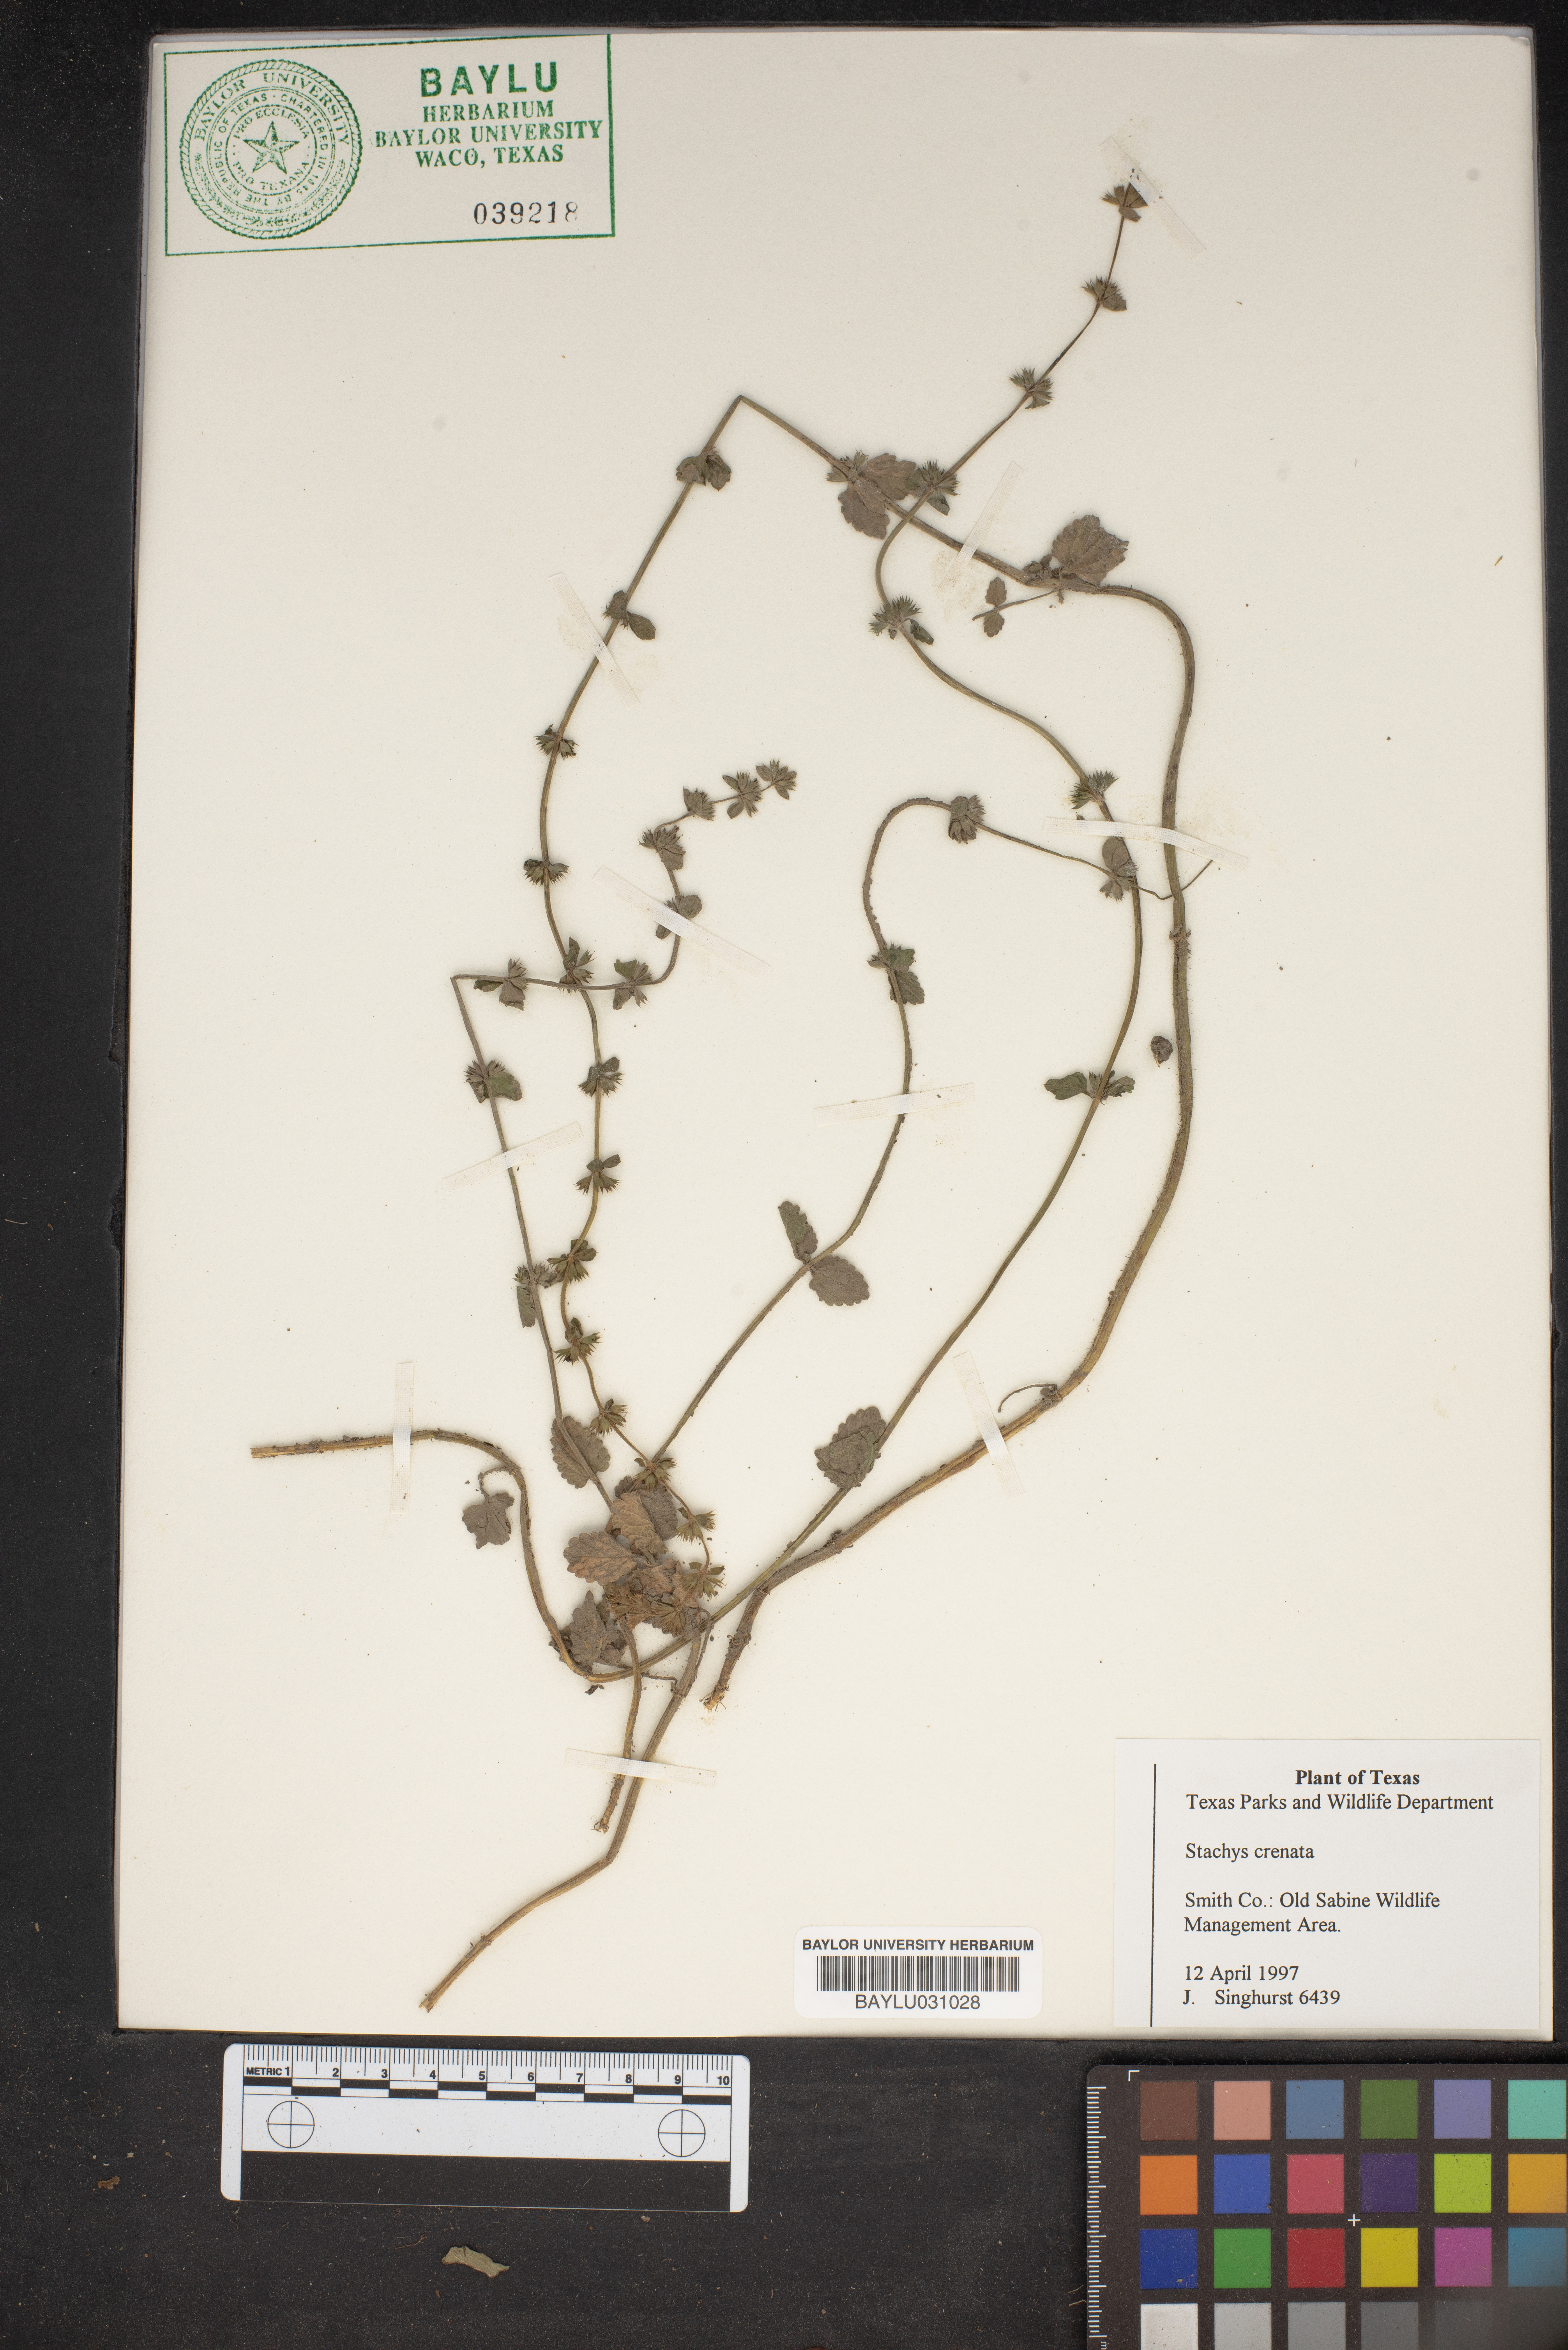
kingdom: Plantae
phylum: Tracheophyta
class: Magnoliopsida
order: Lamiales
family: Lamiaceae
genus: Stachys
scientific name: Stachys agraria
